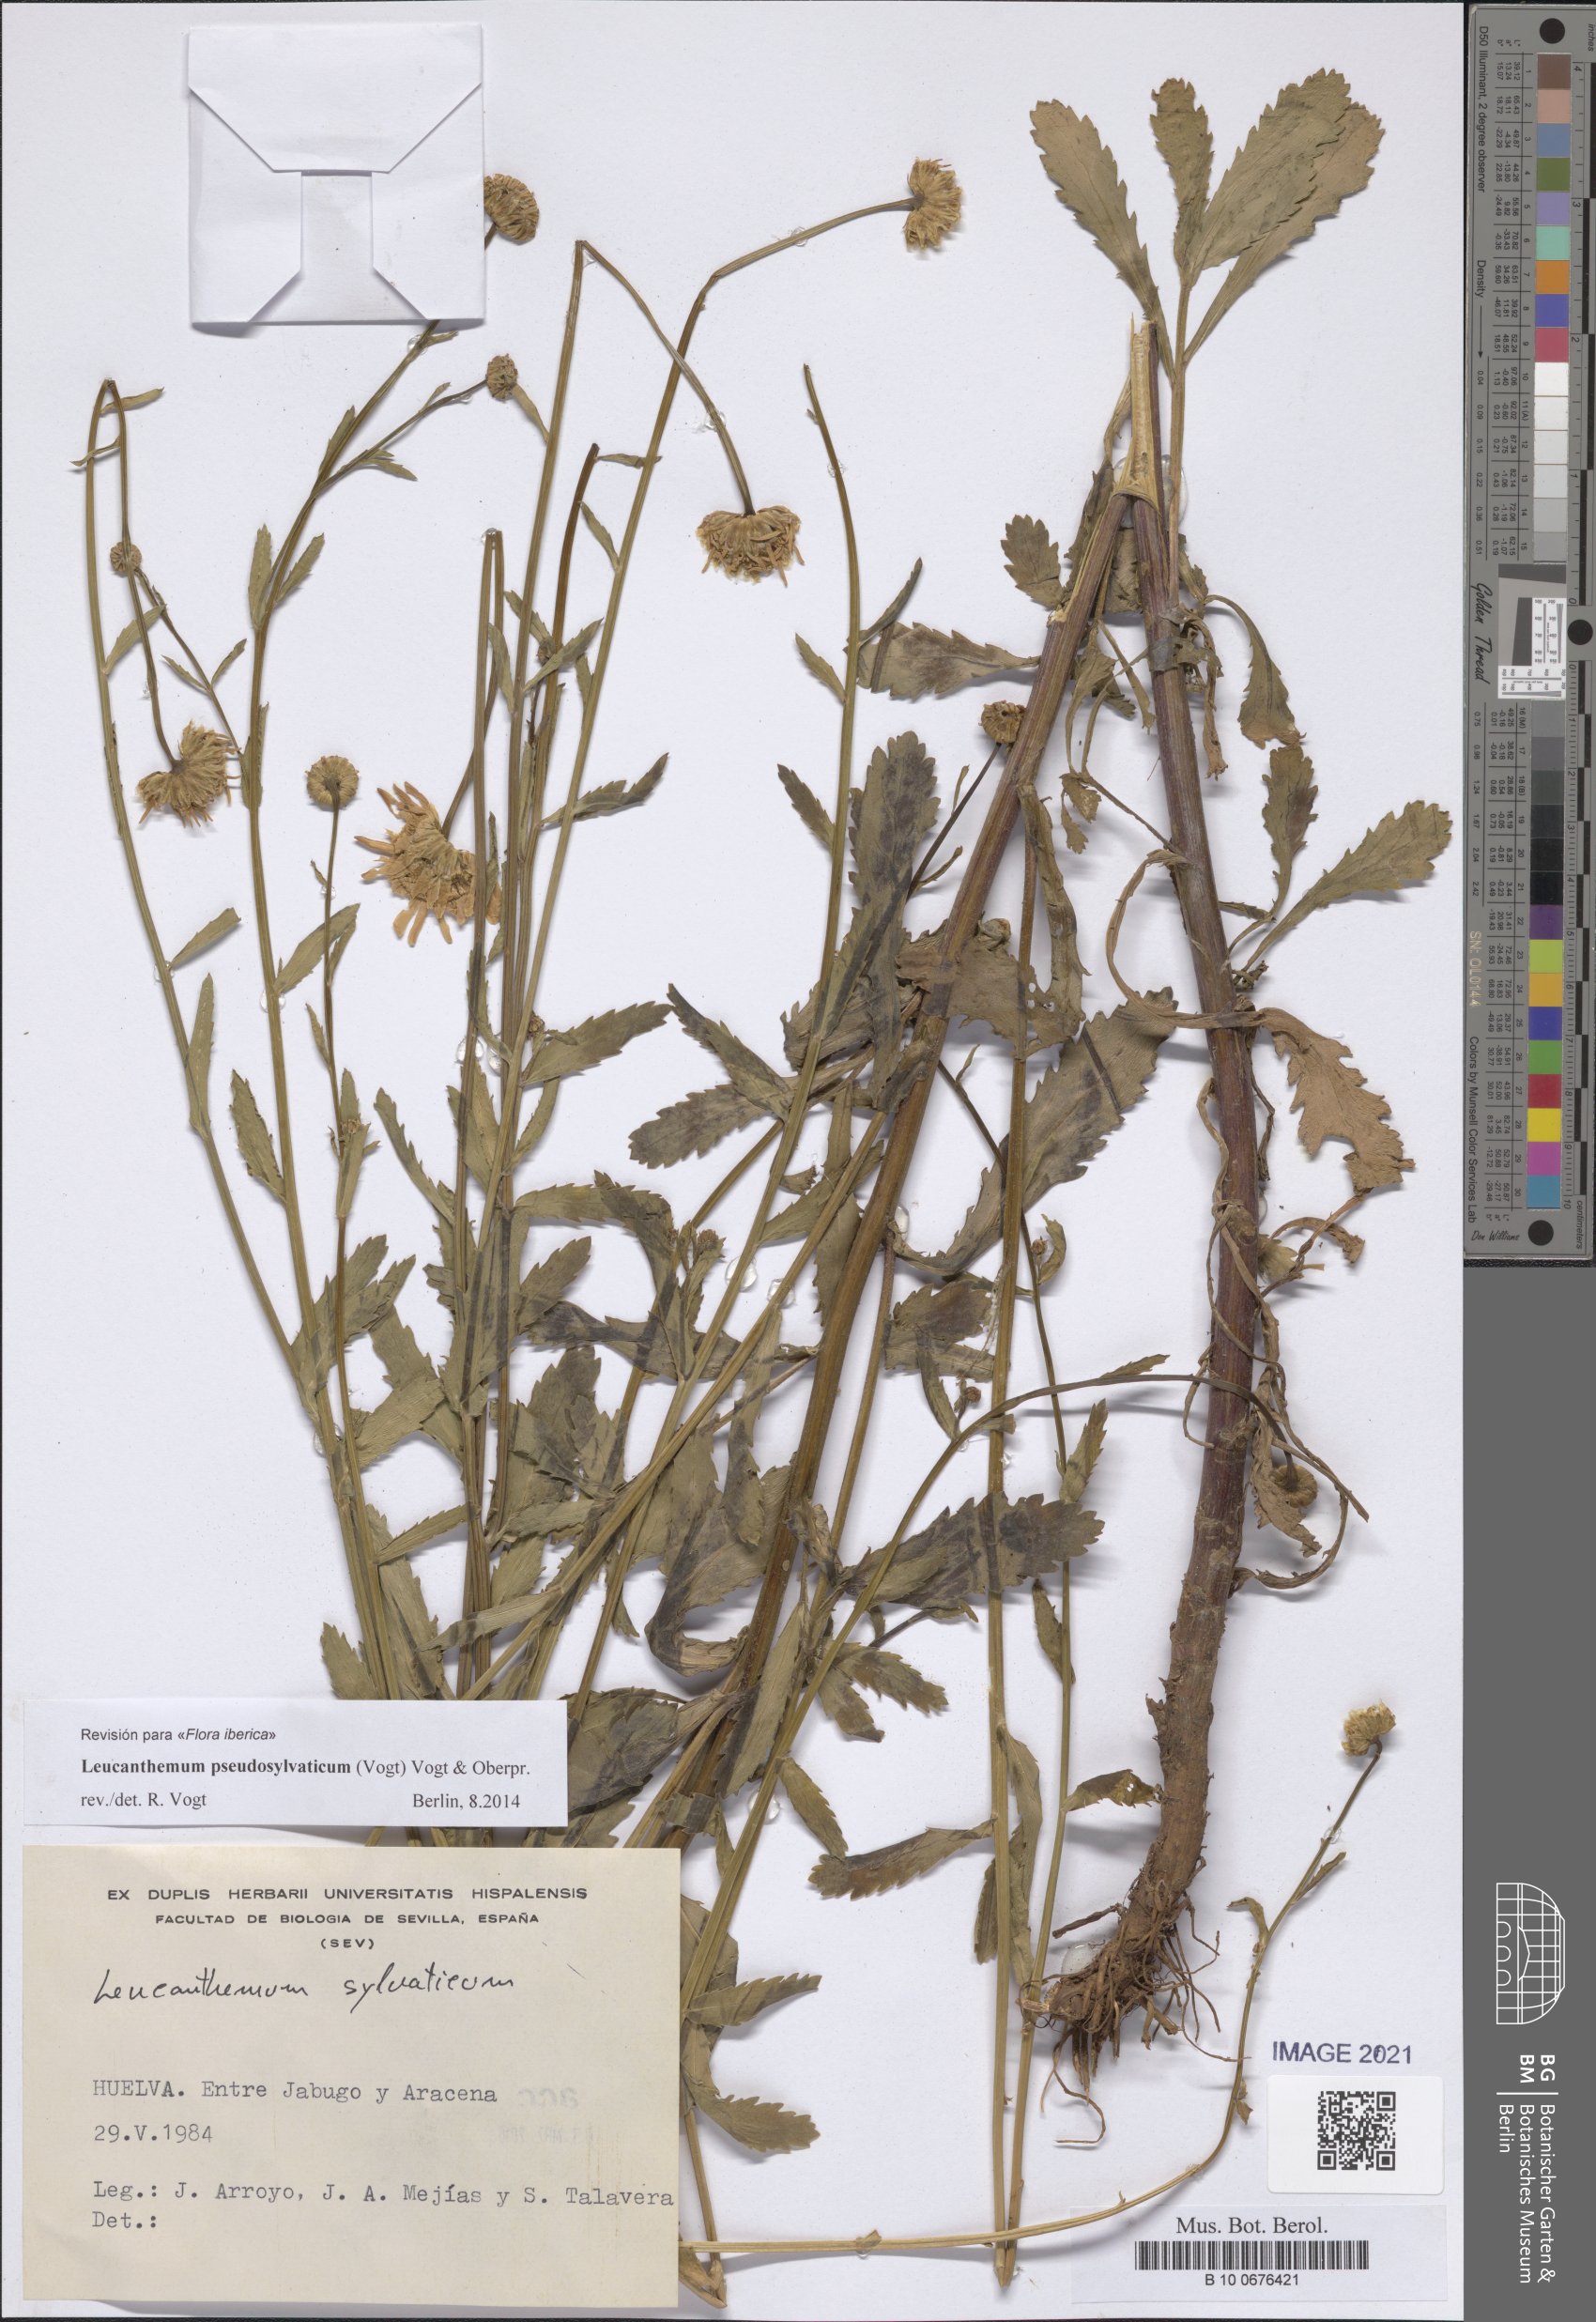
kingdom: Plantae
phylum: Tracheophyta
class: Magnoliopsida
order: Asterales
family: Asteraceae
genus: Leucanthemum
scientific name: Leucanthemum pseudosylvaticum
